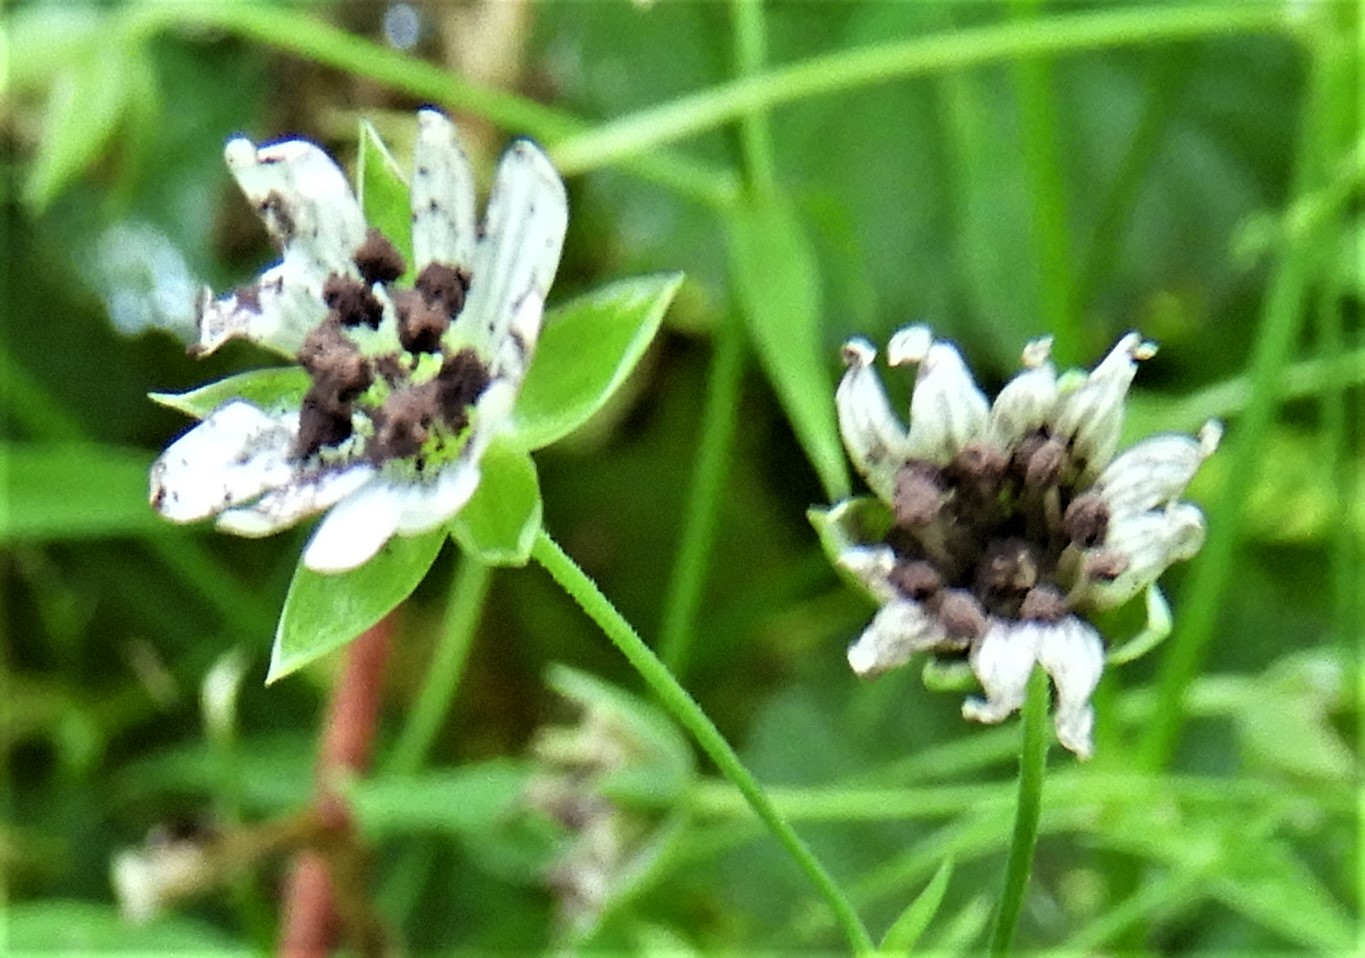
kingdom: Fungi
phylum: Basidiomycota
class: Microbotryomycetes
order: Microbotryales
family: Microbotryaceae
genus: Microbotryum
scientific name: Microbotryum stellariae
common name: fladstjerne-støvbladrust
